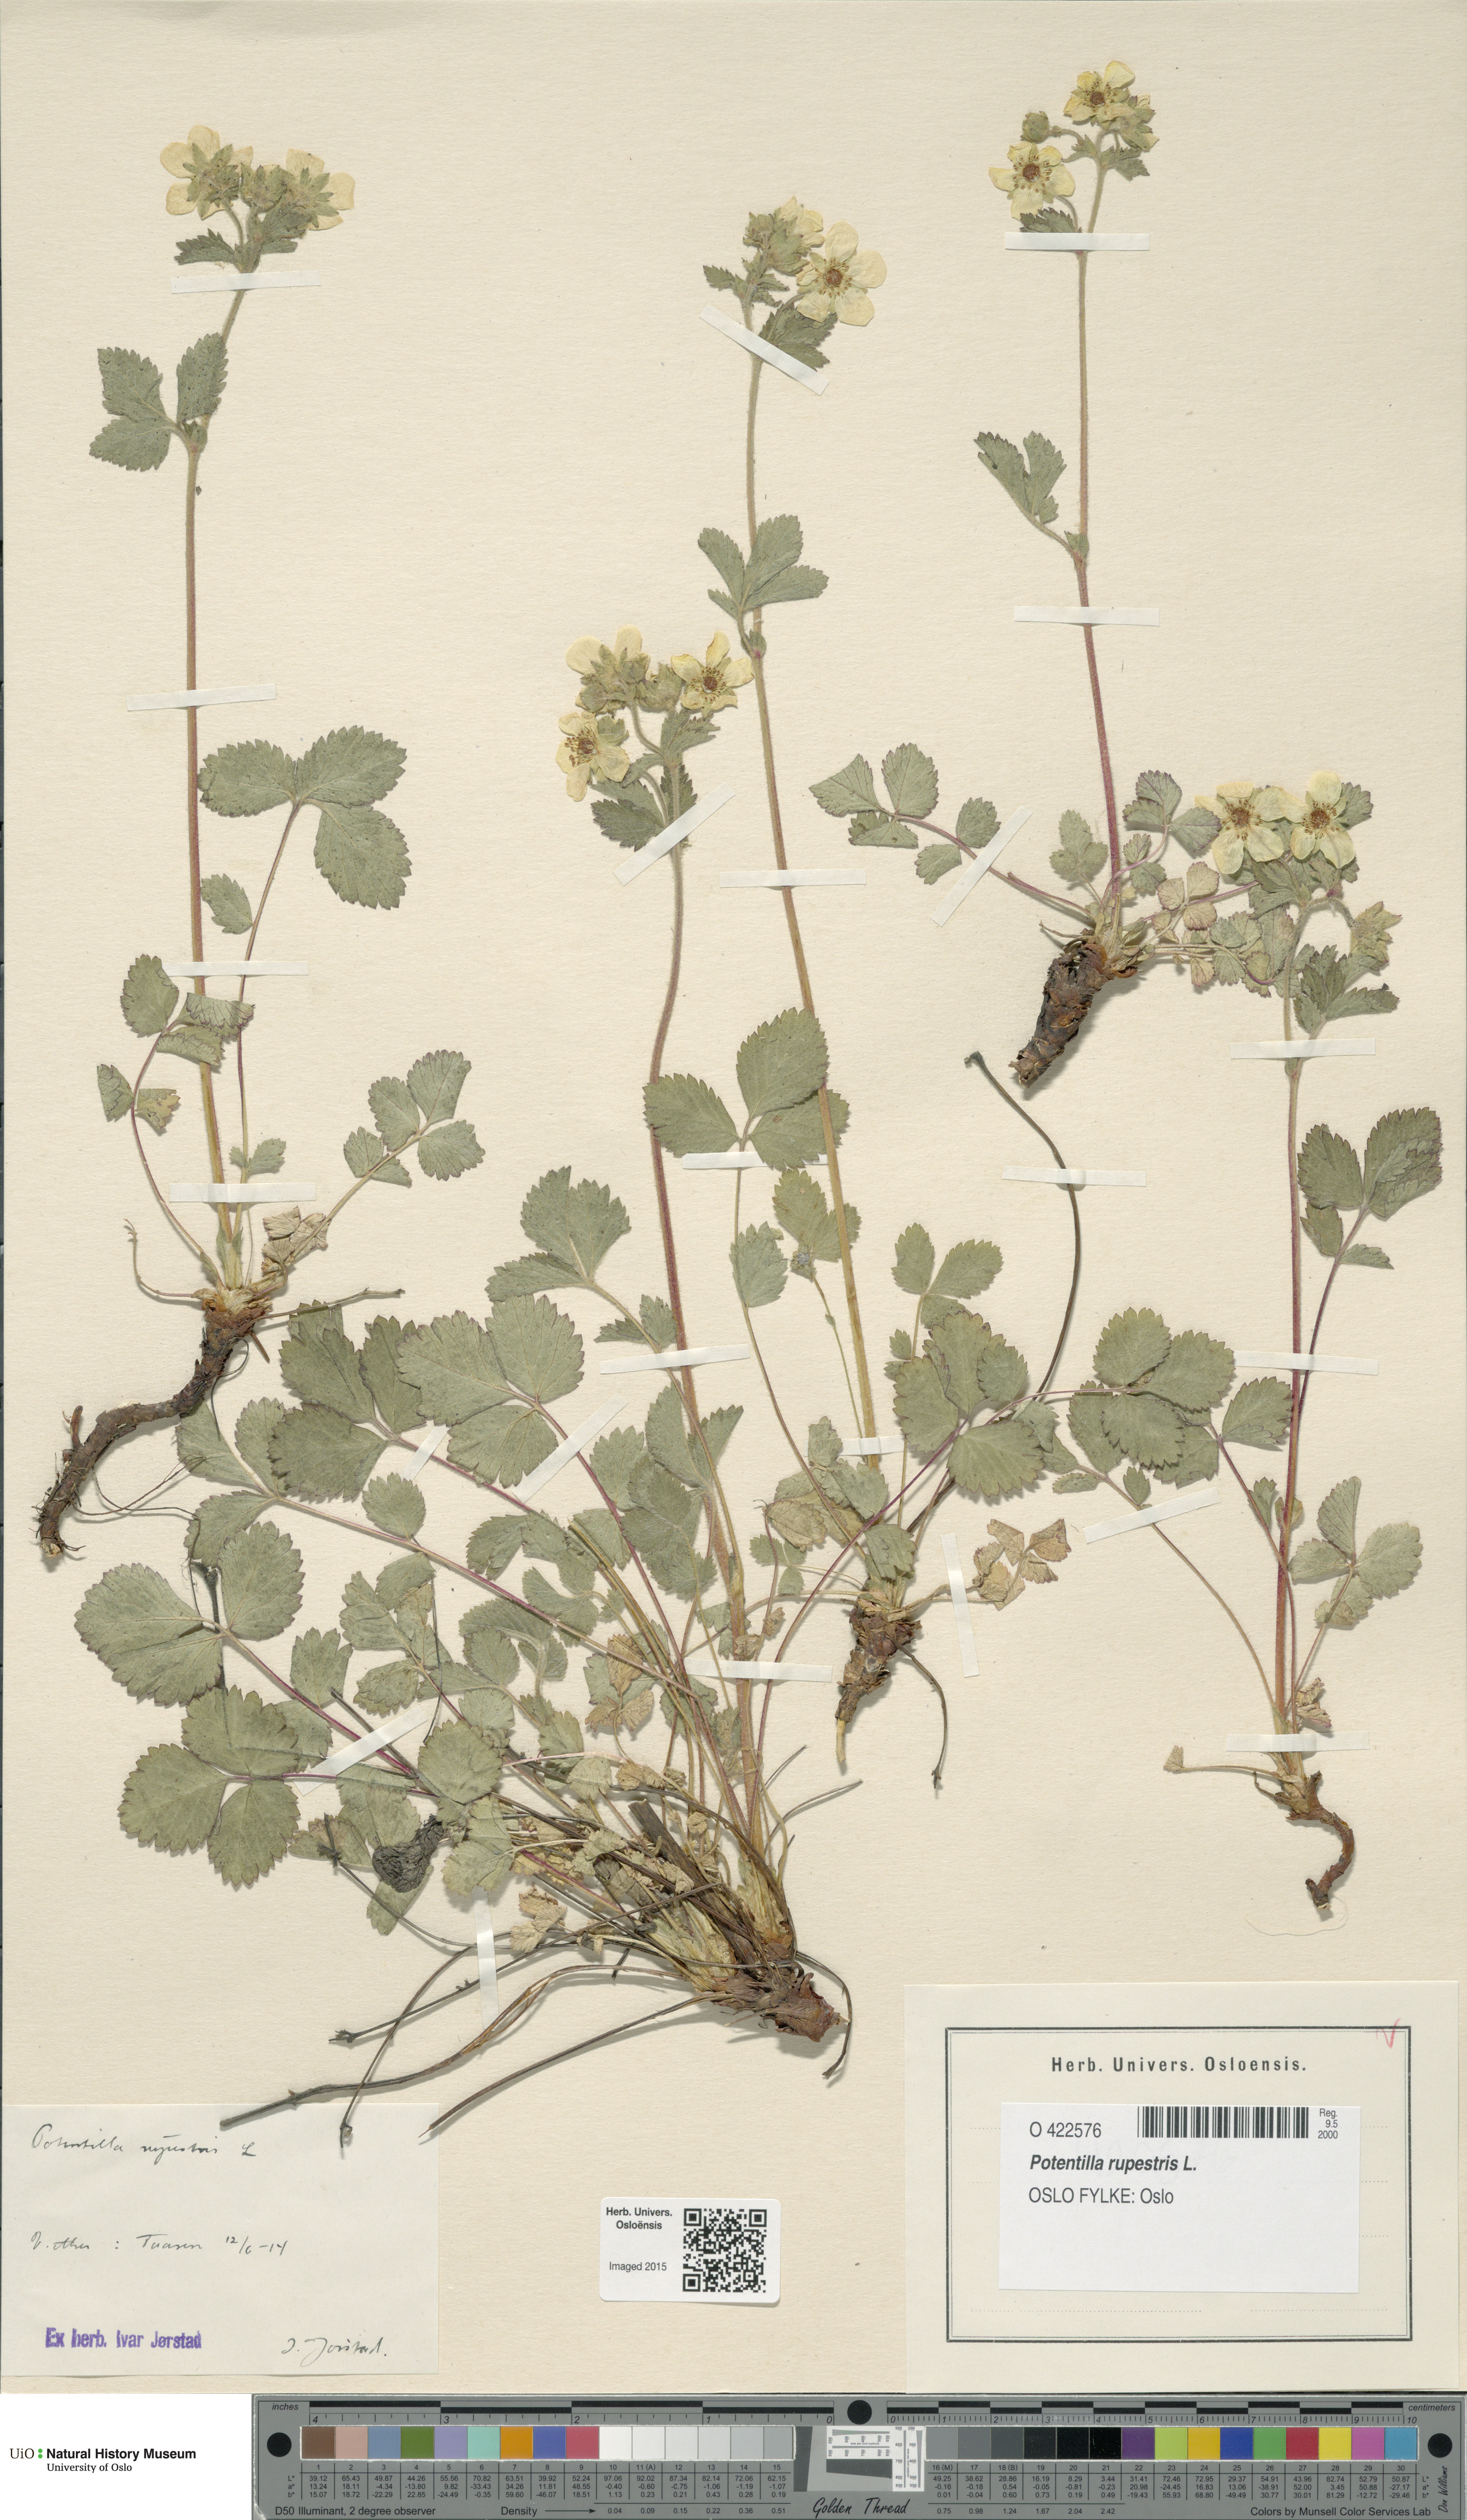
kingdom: Plantae
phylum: Tracheophyta
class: Magnoliopsida
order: Rosales
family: Rosaceae
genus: Drymocallis
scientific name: Drymocallis rupestris
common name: Rock cinquefoil
